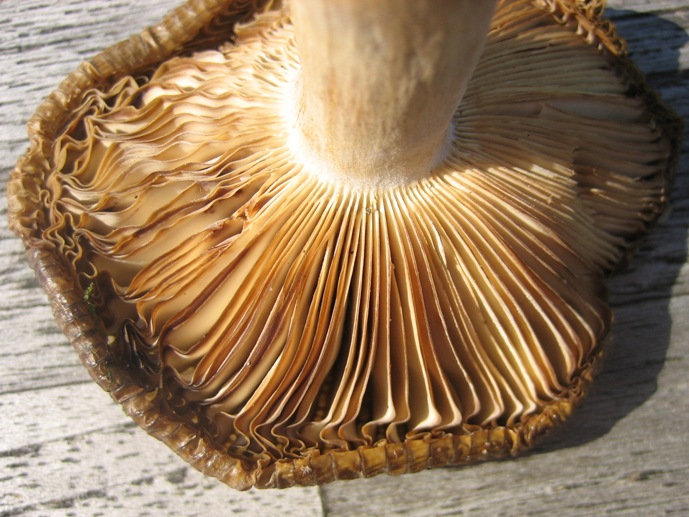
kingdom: Fungi
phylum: Basidiomycota
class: Agaricomycetes
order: Russulales
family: Russulaceae
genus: Russula
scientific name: Russula amoenolens
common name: skarp kam-skørhat
